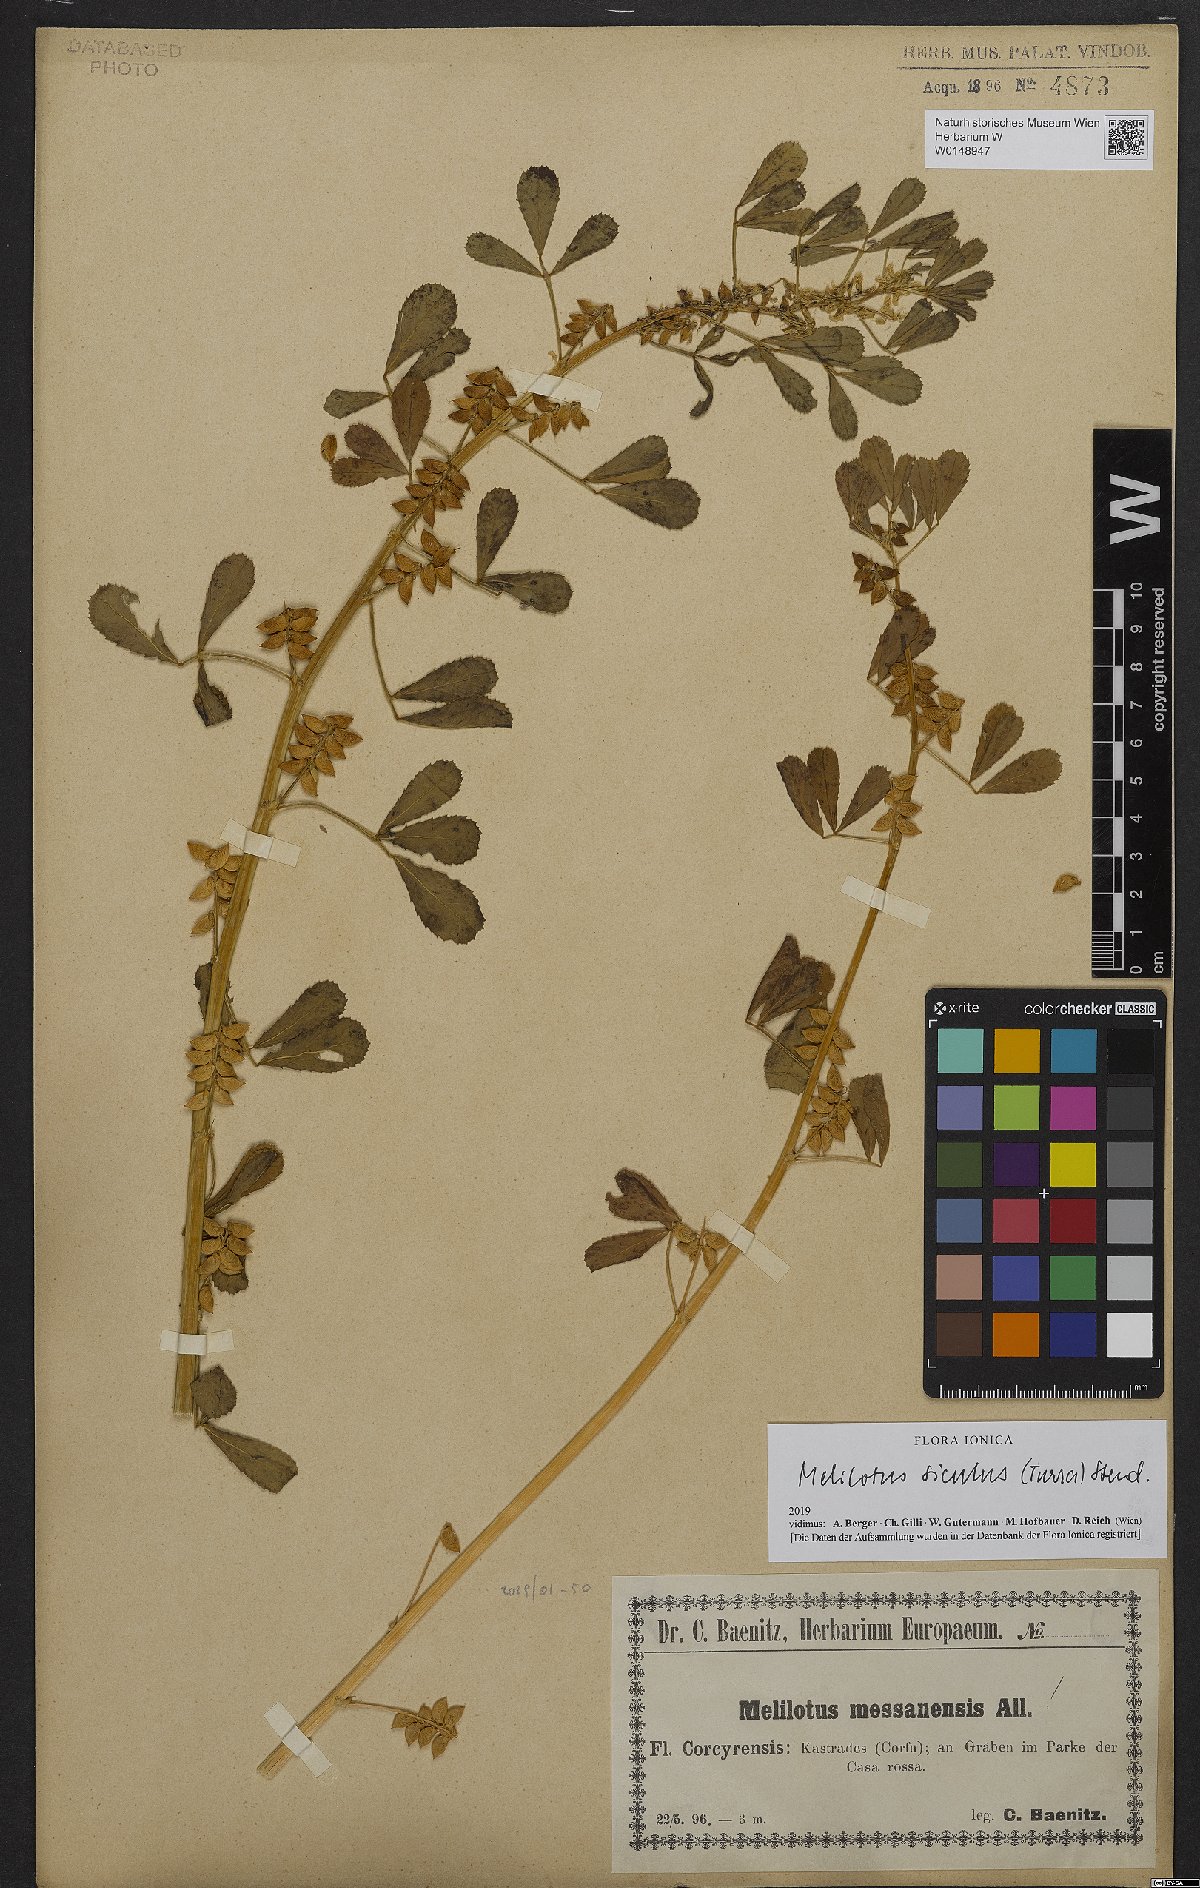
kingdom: Plantae
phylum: Tracheophyta
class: Magnoliopsida
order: Fabales
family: Fabaceae
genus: Melilotus
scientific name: Melilotus siculus
